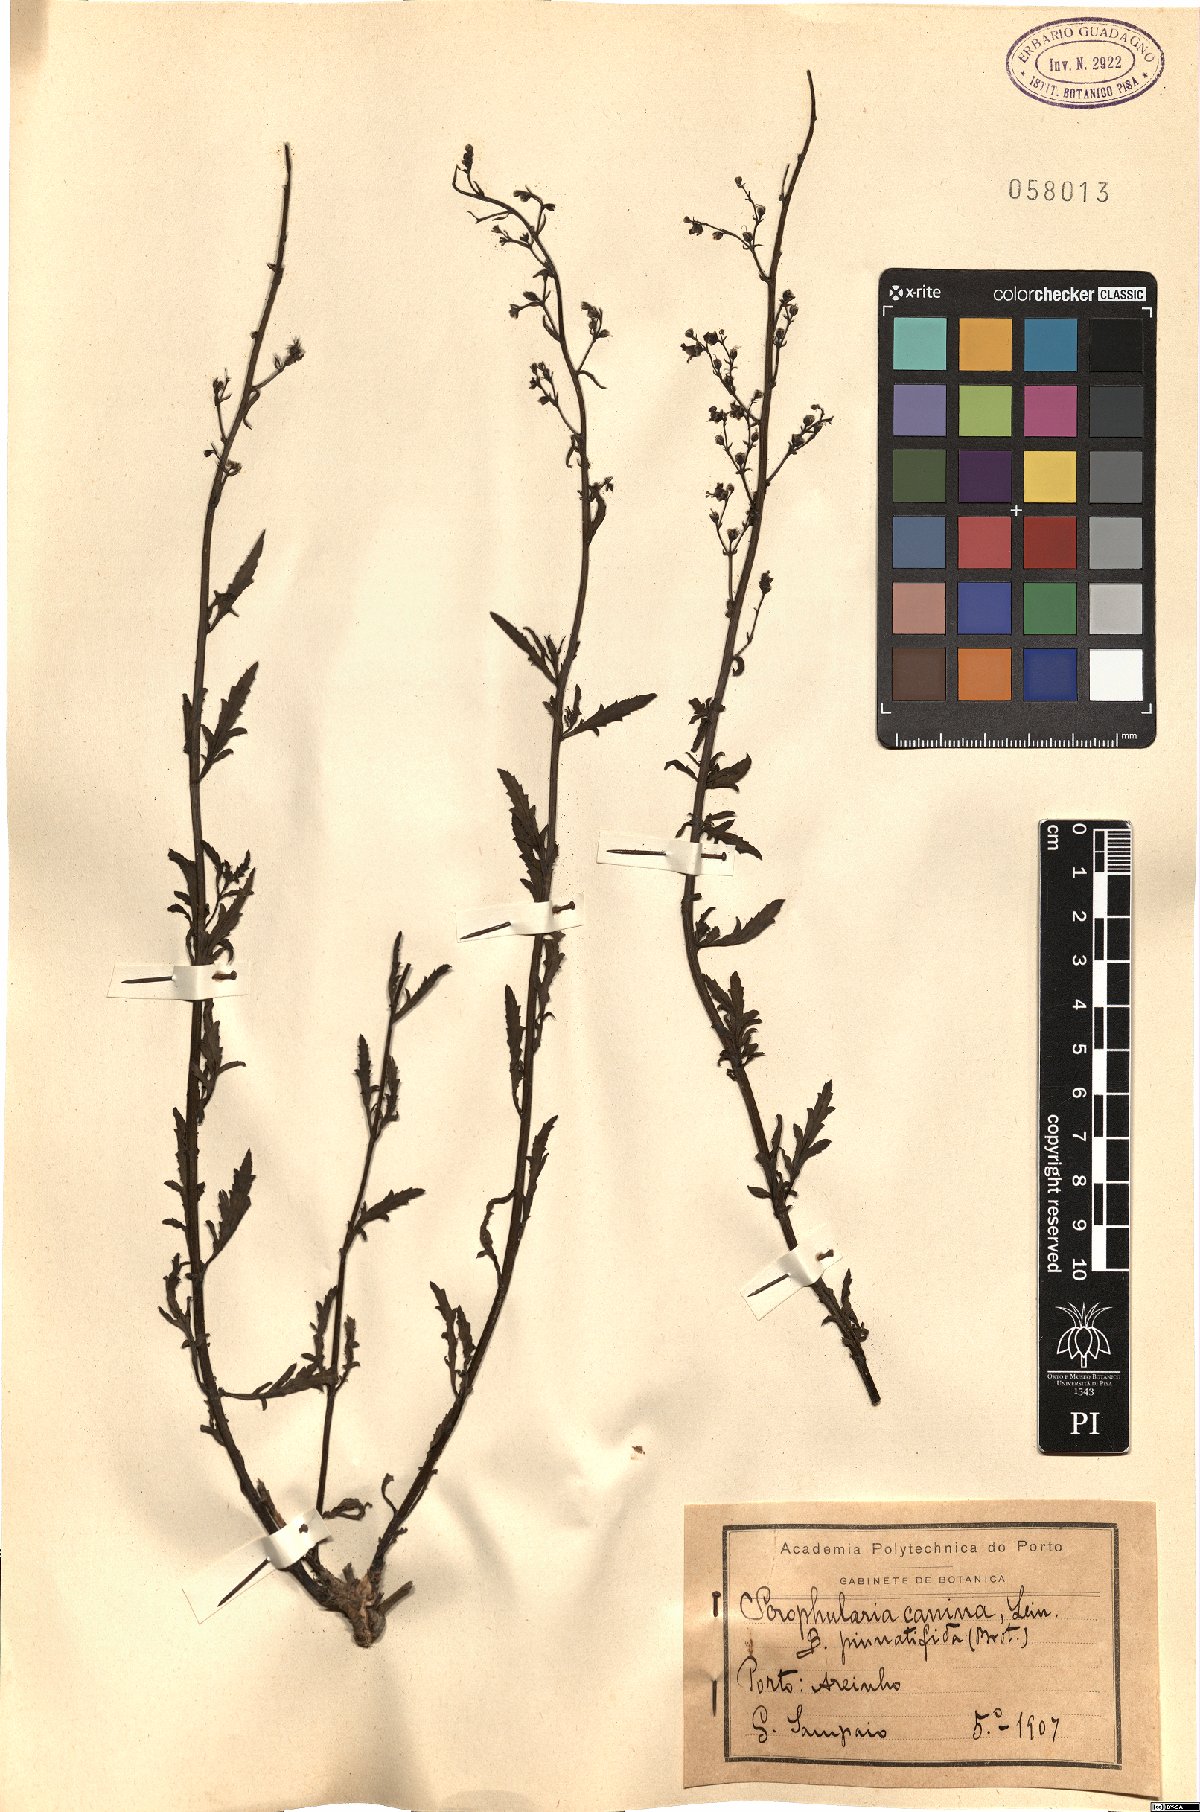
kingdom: Plantae
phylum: Tracheophyta
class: Magnoliopsida
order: Lamiales
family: Scrophulariaceae
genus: Scrophularia
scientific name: Scrophularia canina
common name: French figwort
